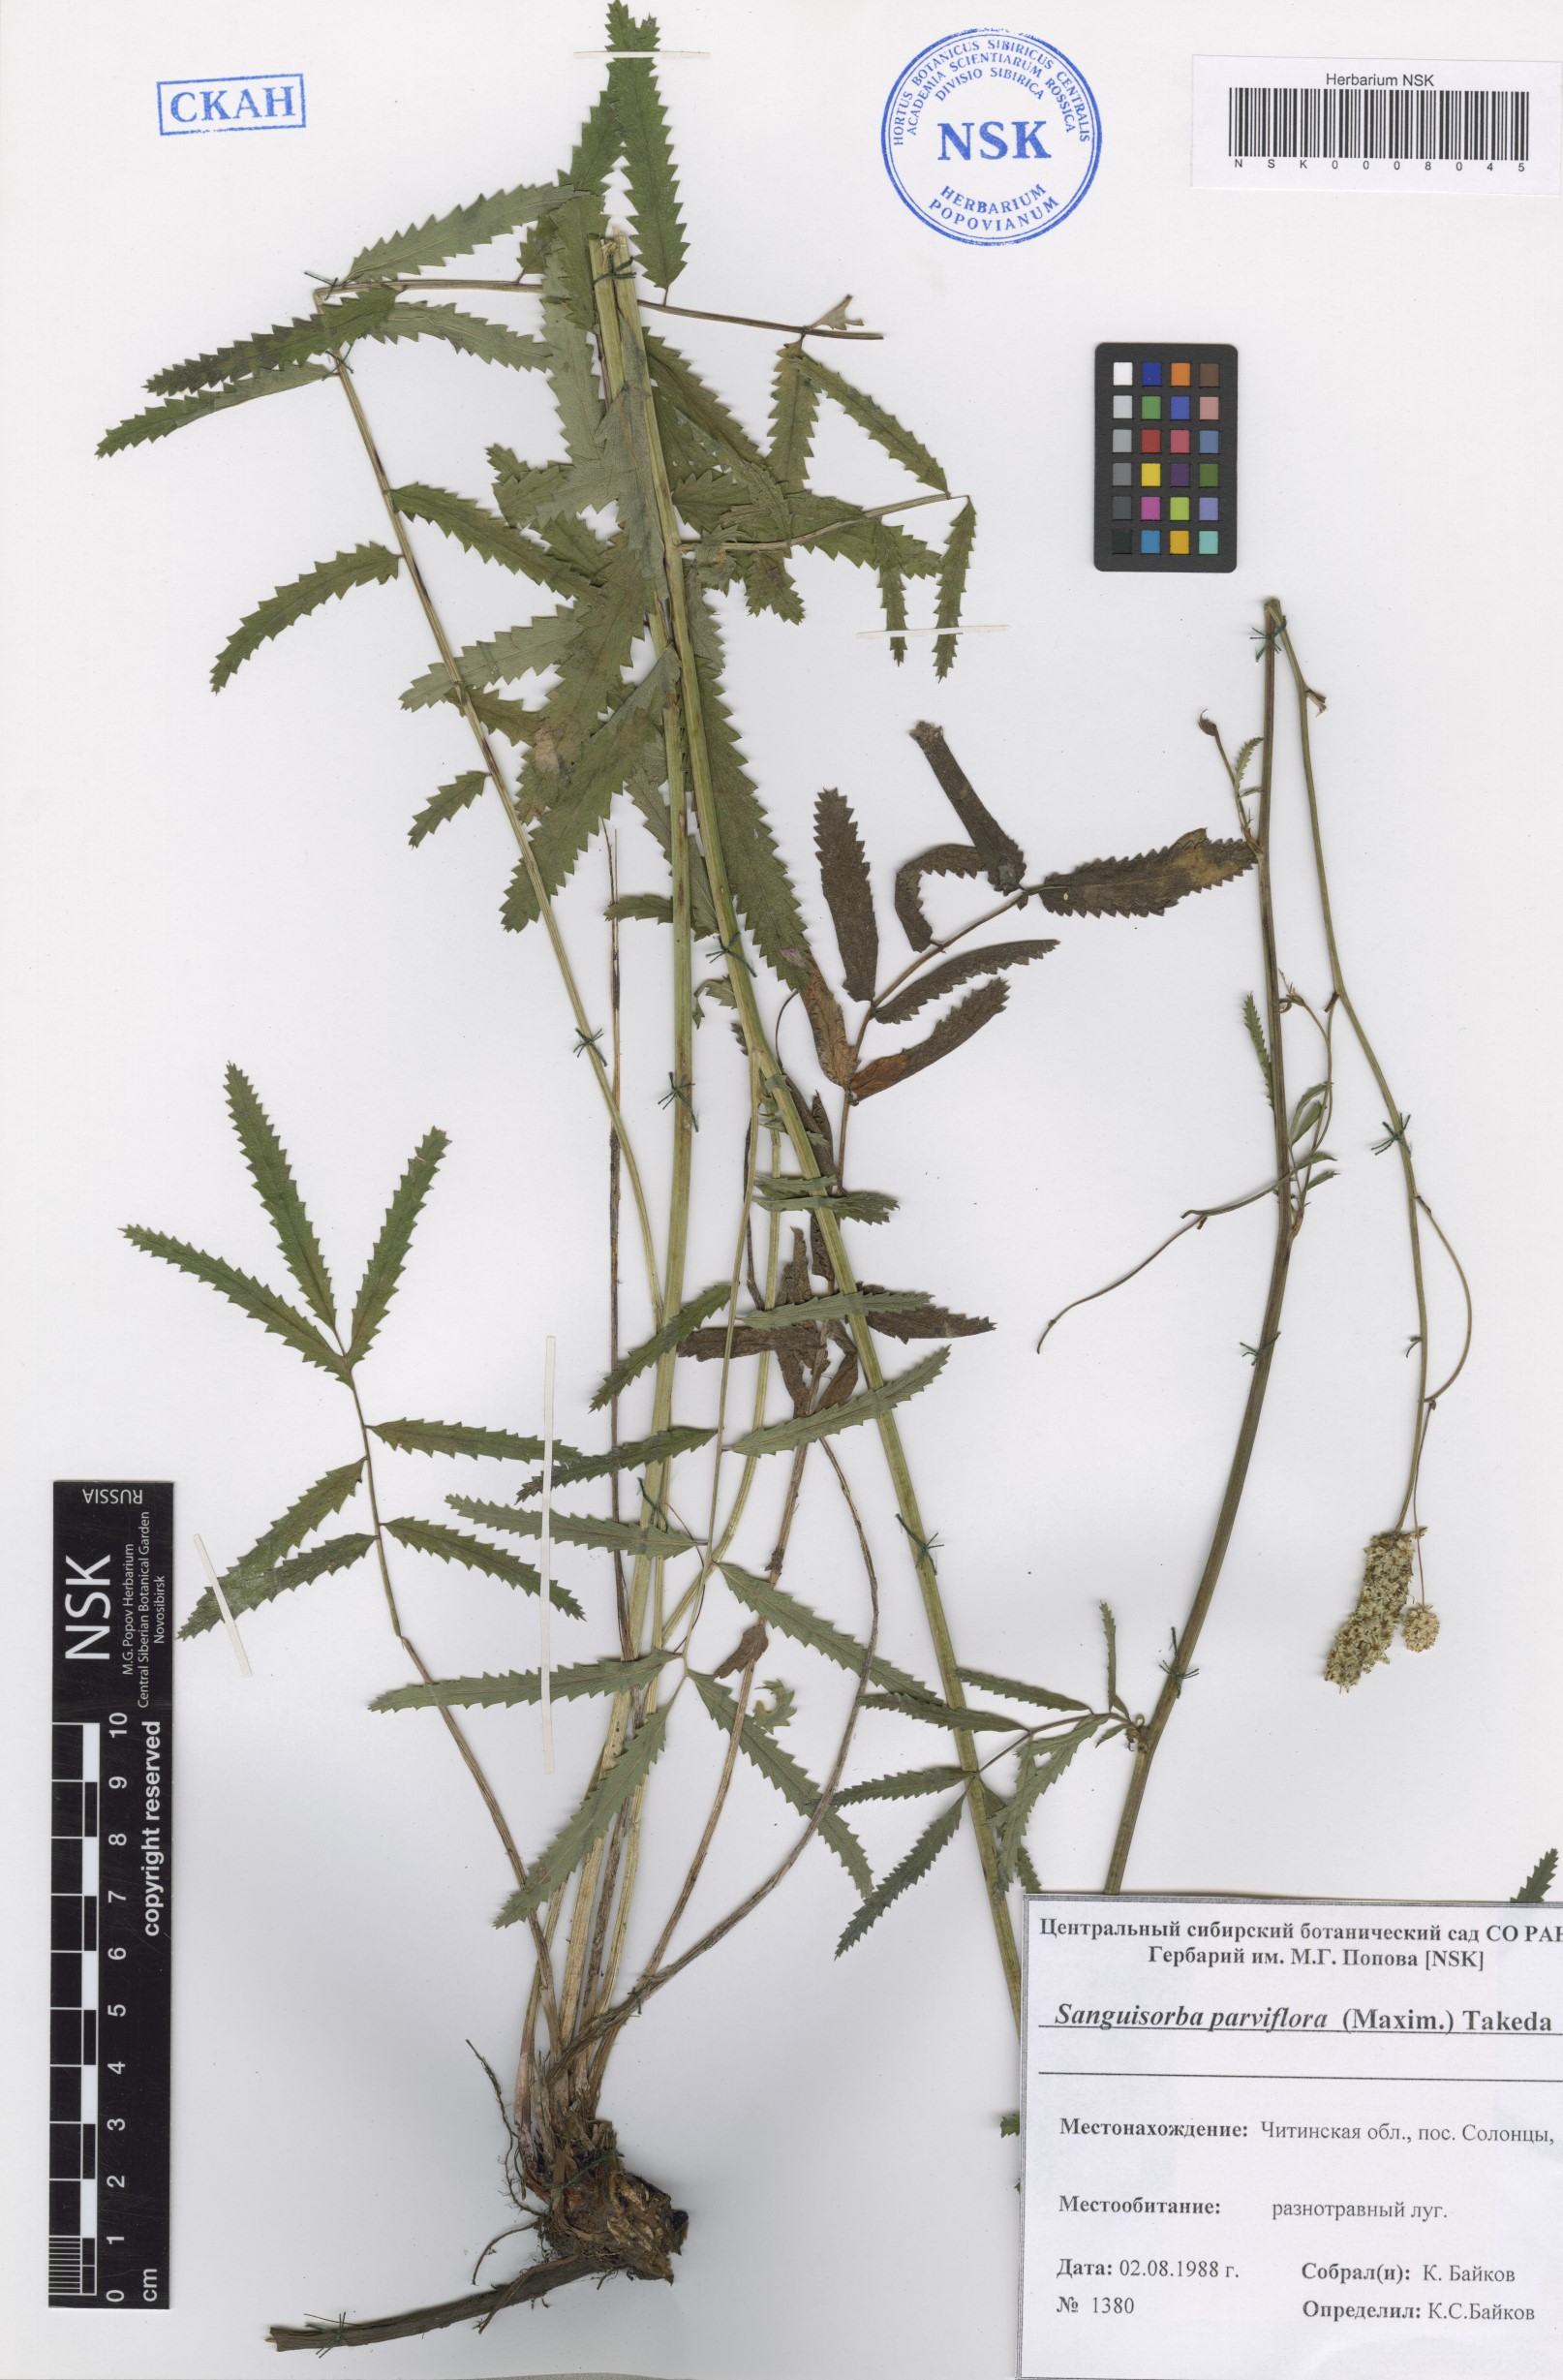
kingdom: Plantae
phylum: Tracheophyta
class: Magnoliopsida
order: Rosales
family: Rosaceae
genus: Poterium
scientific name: Poterium tenuifolium
